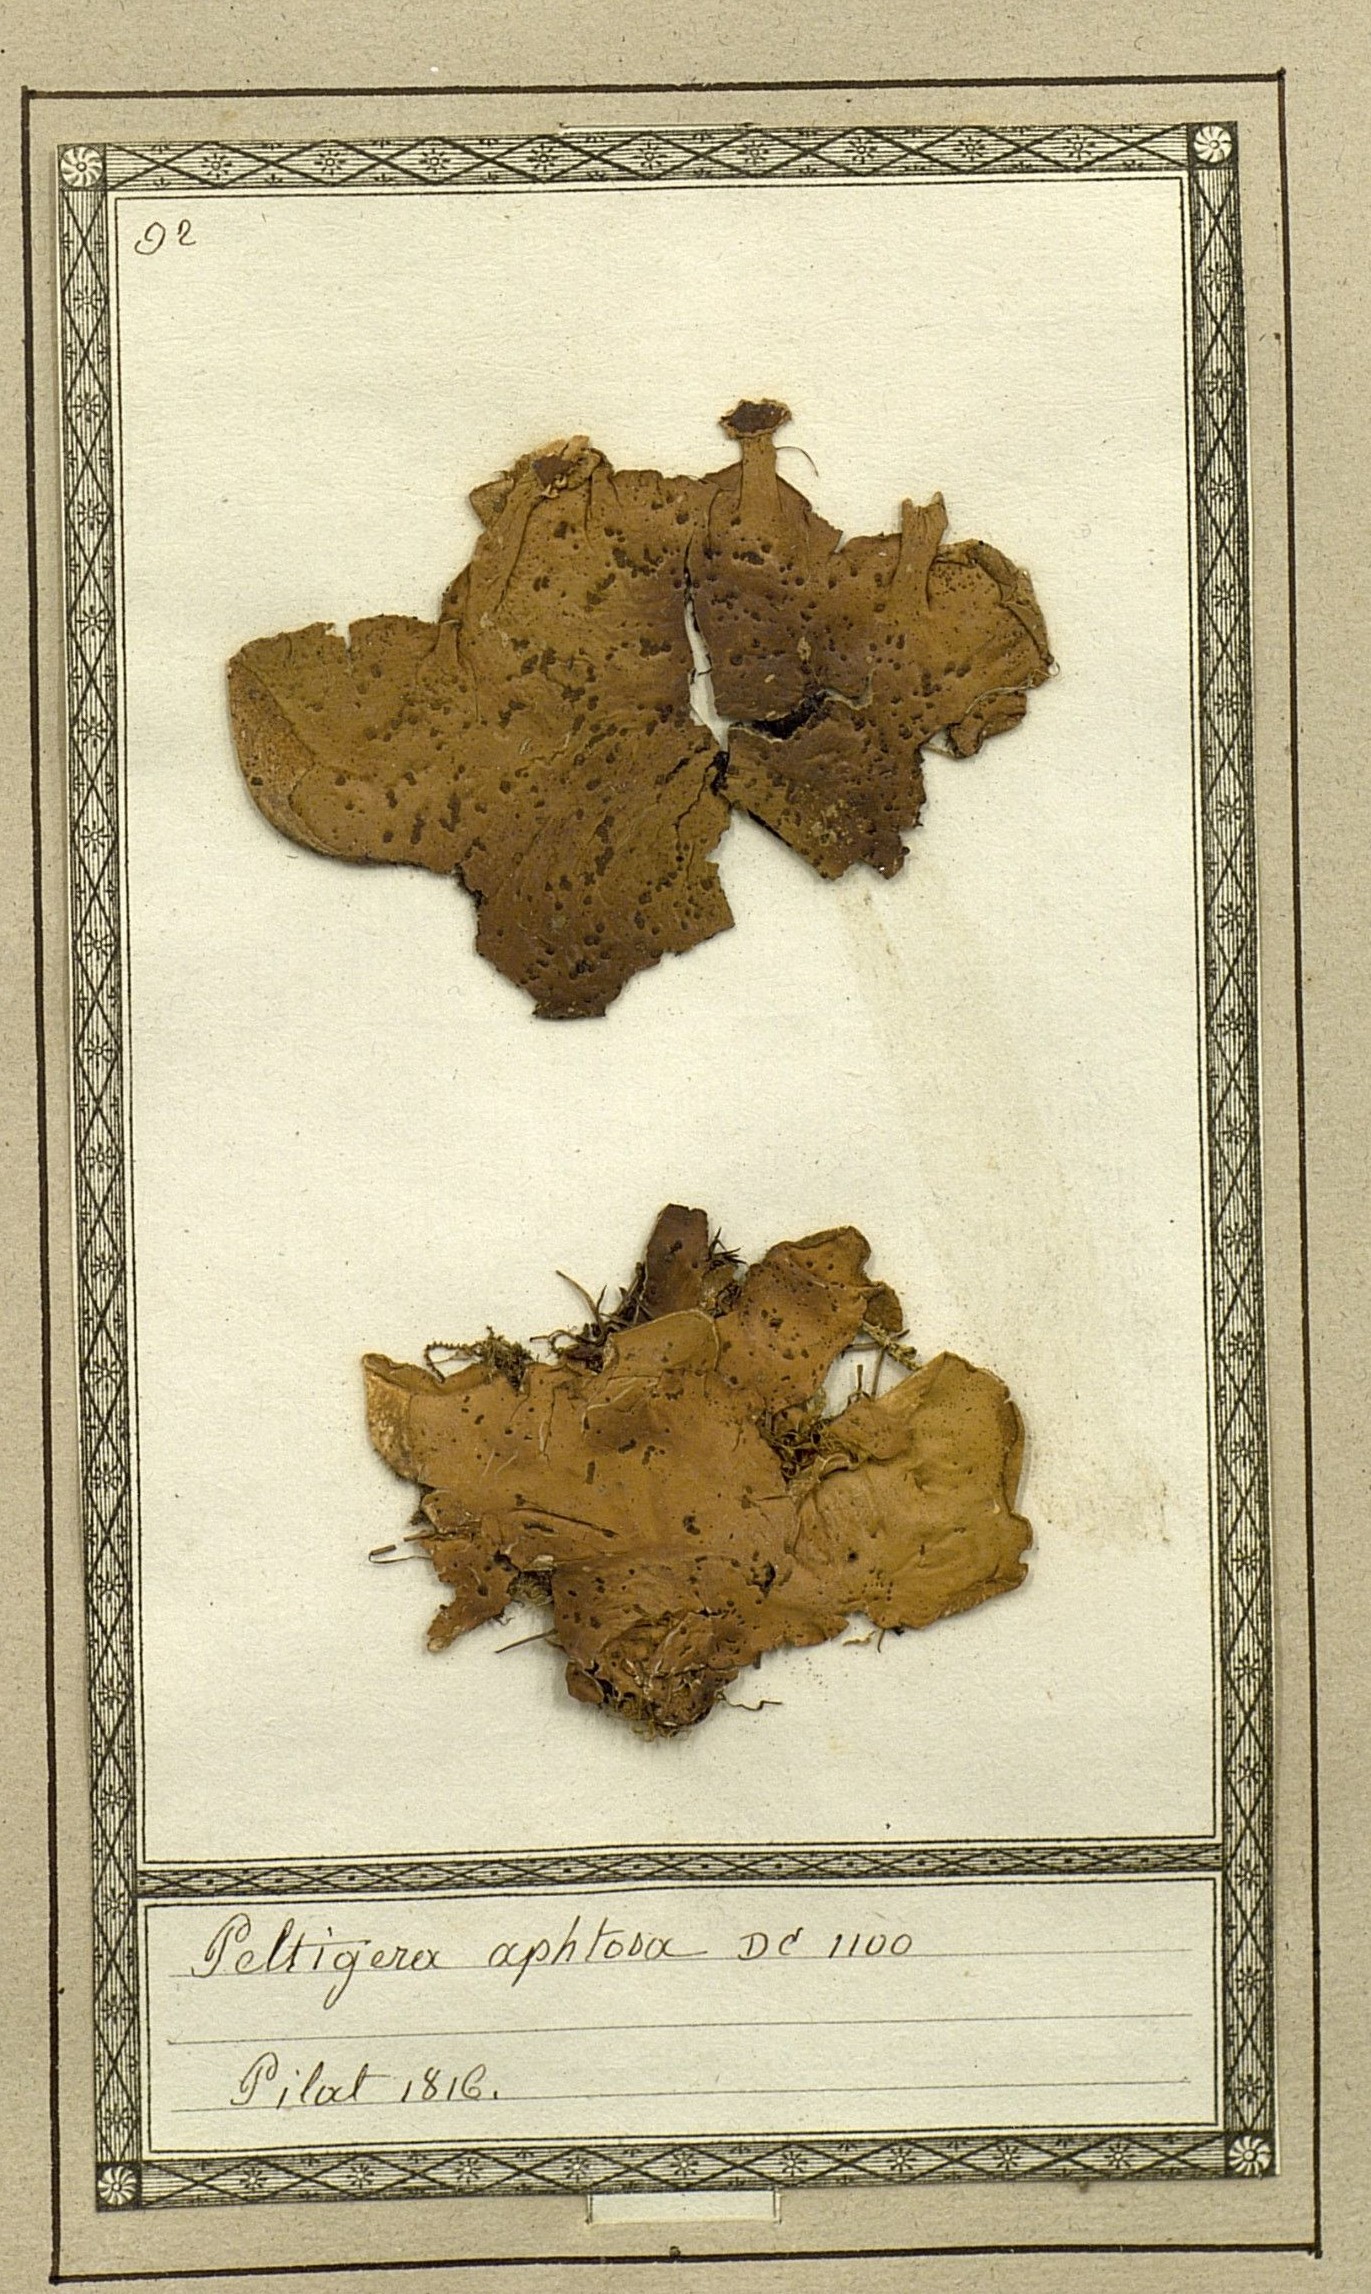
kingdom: Fungi
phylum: Ascomycota
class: Lecanoromycetes
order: Peltigerales
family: Peltigeraceae
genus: Peltigera
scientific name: Peltigera aphthosa
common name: Common freckle pelt lichen
